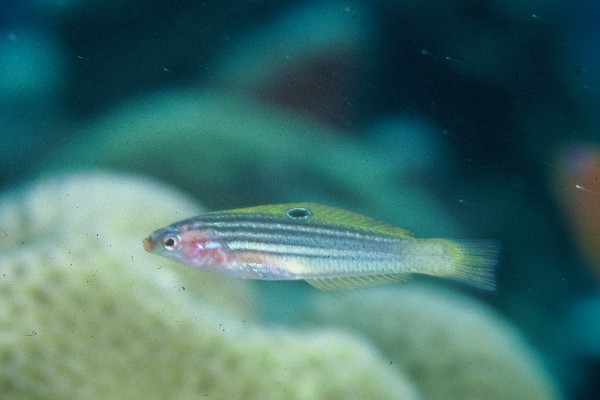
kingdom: Animalia
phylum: Chordata
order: Perciformes
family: Labridae
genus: Minilabrus
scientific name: Minilabrus striatus
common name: Minute wrasse
